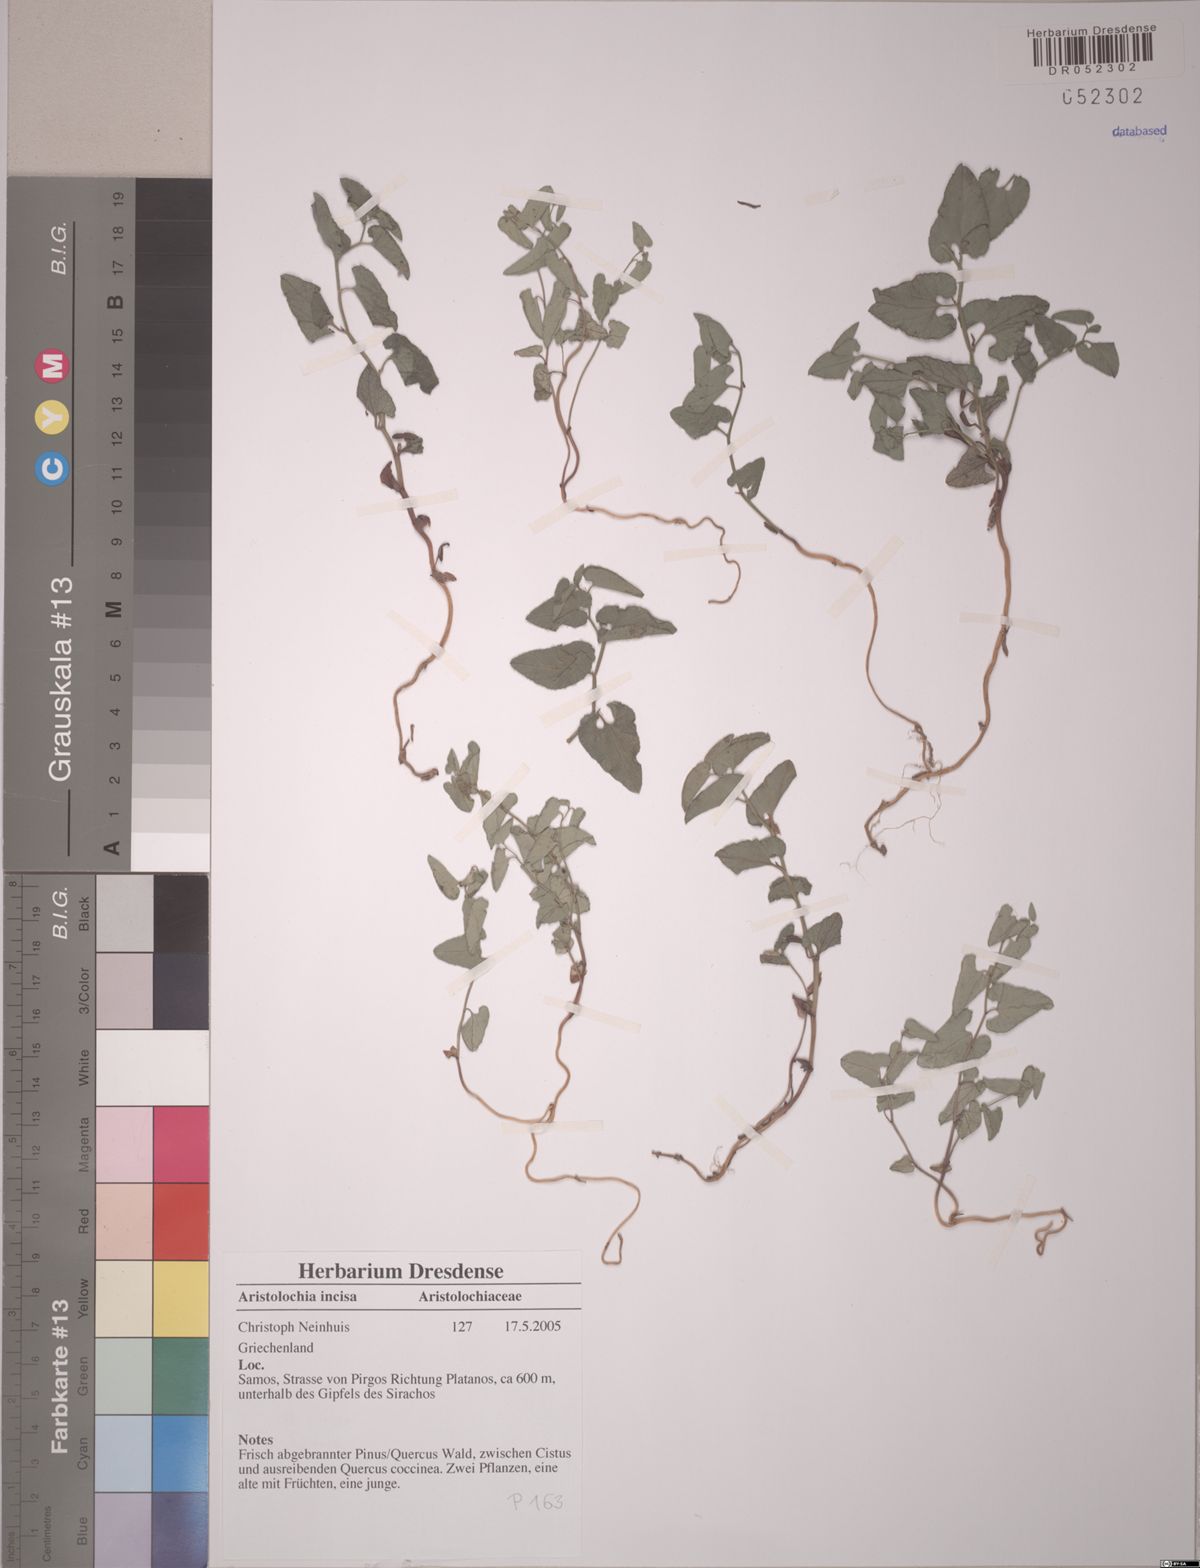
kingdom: Plantae
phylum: Tracheophyta
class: Magnoliopsida
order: Piperales
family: Aristolochiaceae
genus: Aristolochia
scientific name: Aristolochia incisa
